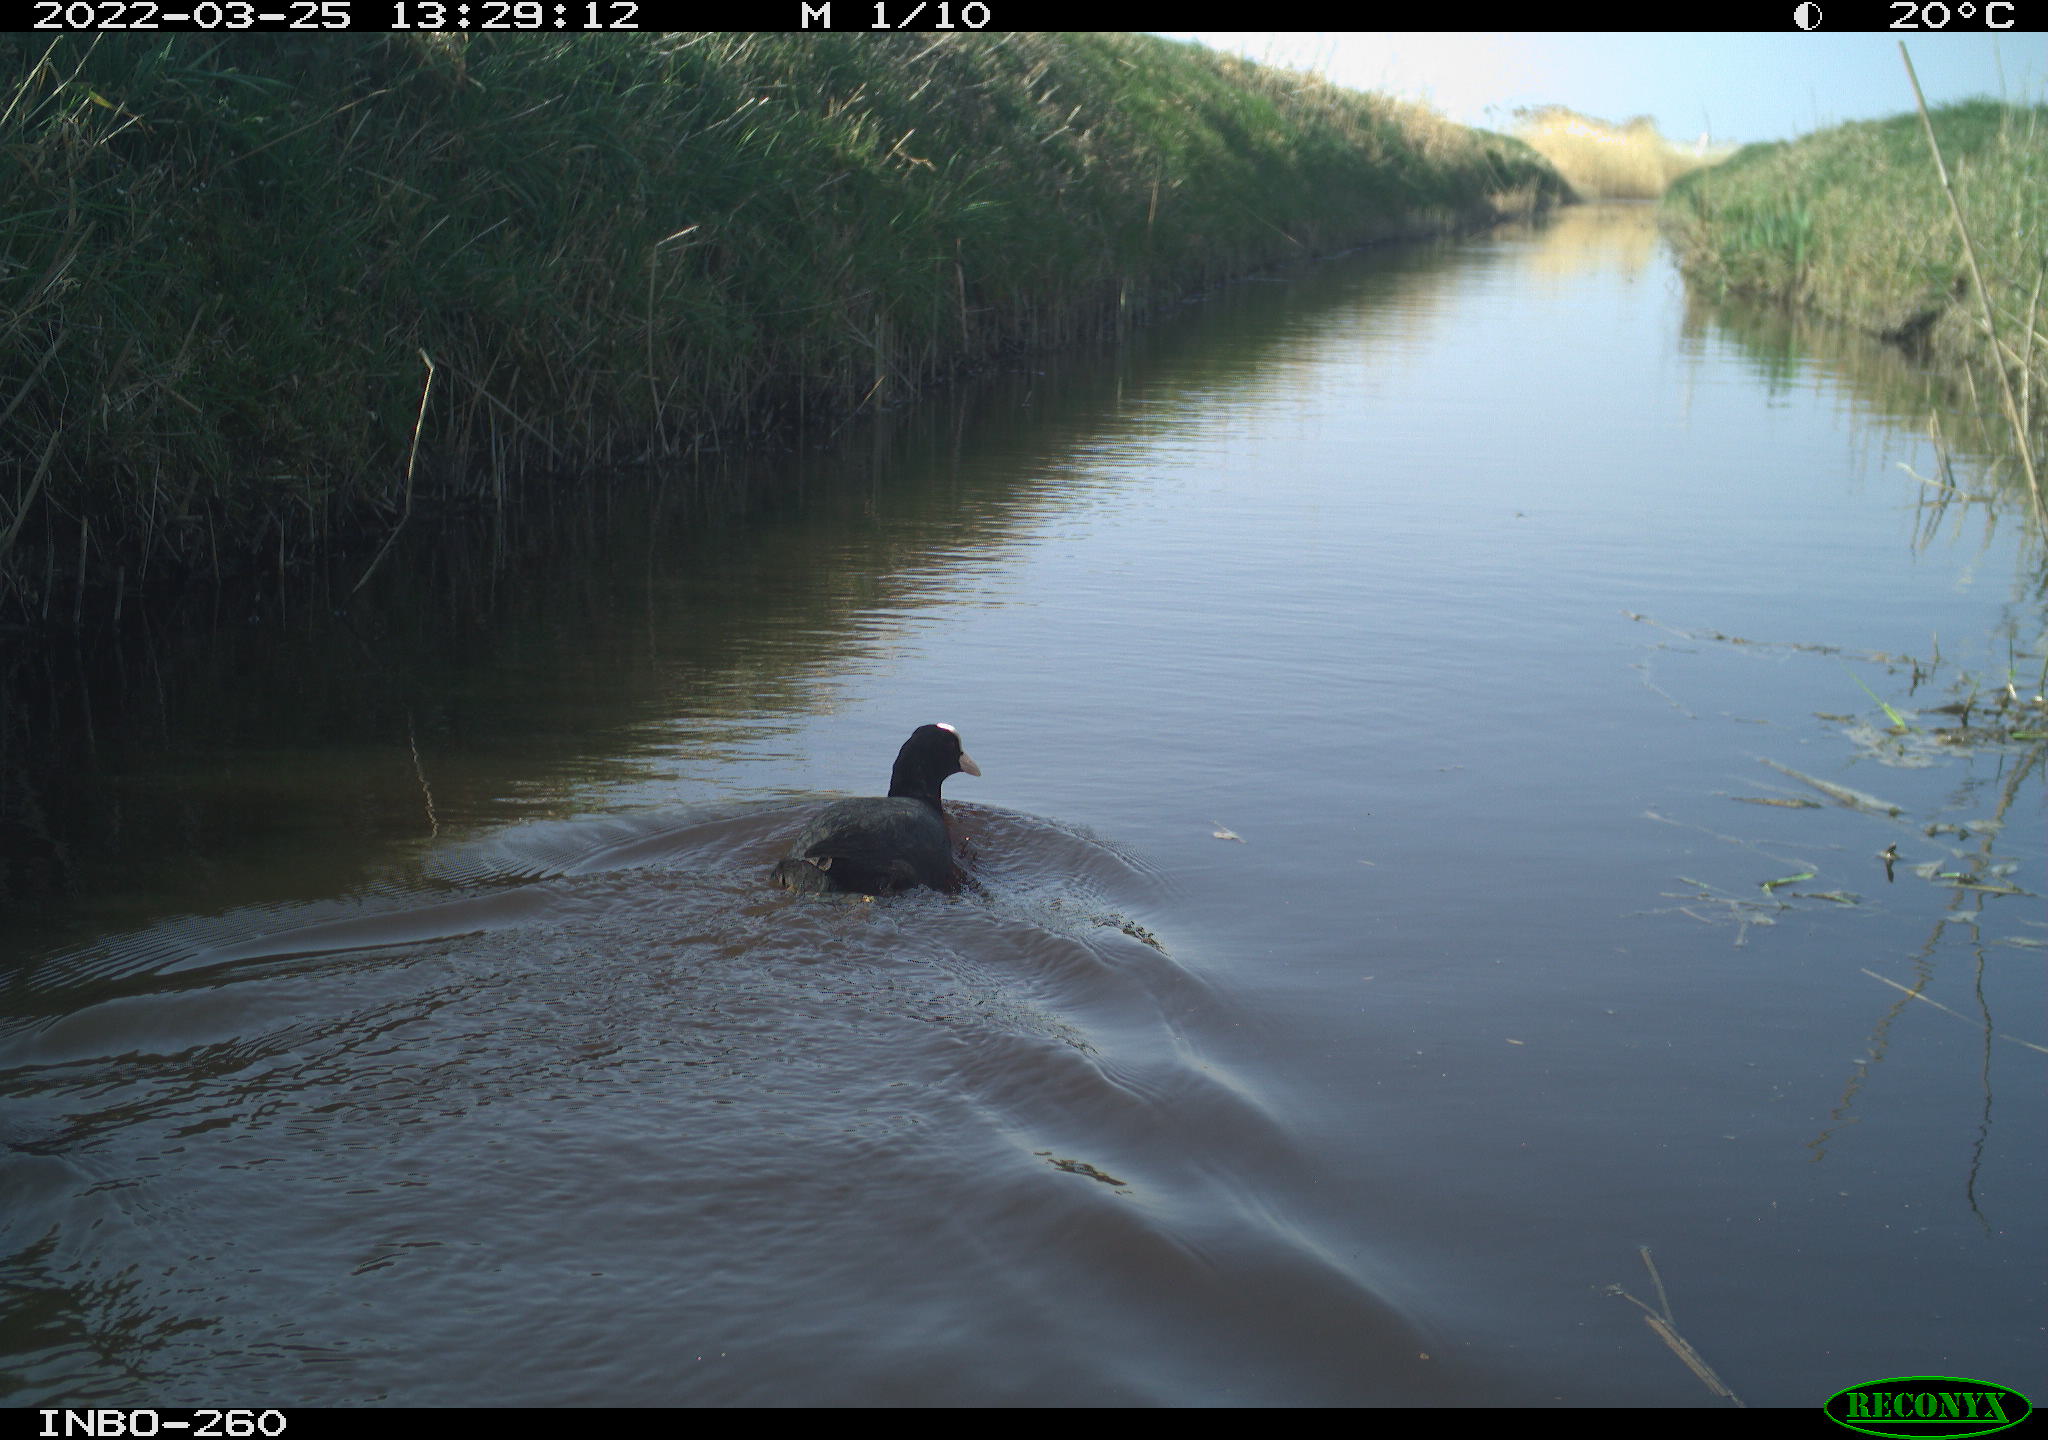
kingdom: Animalia
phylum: Chordata
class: Aves
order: Gruiformes
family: Rallidae
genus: Fulica
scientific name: Fulica atra
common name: Eurasian coot
